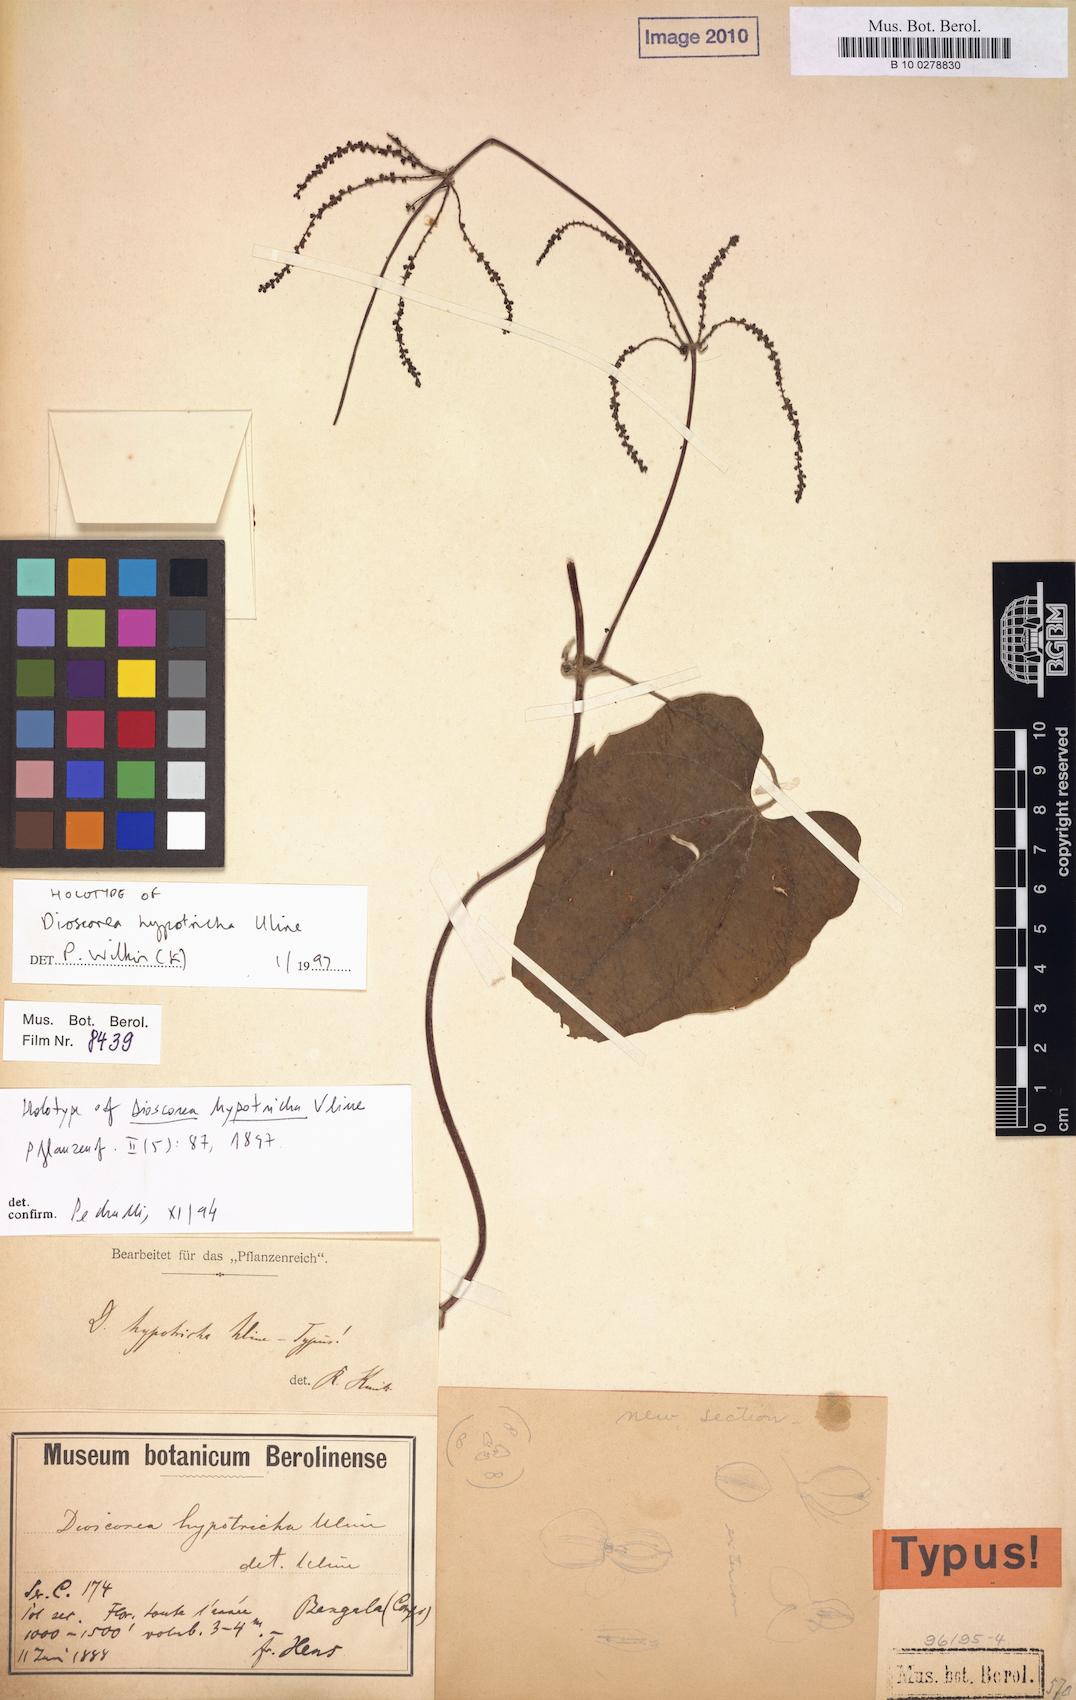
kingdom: Plantae
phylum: Tracheophyta
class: Liliopsida
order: Dioscoreales
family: Dioscoreaceae
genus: Dioscorea
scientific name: Dioscorea semperflorens
